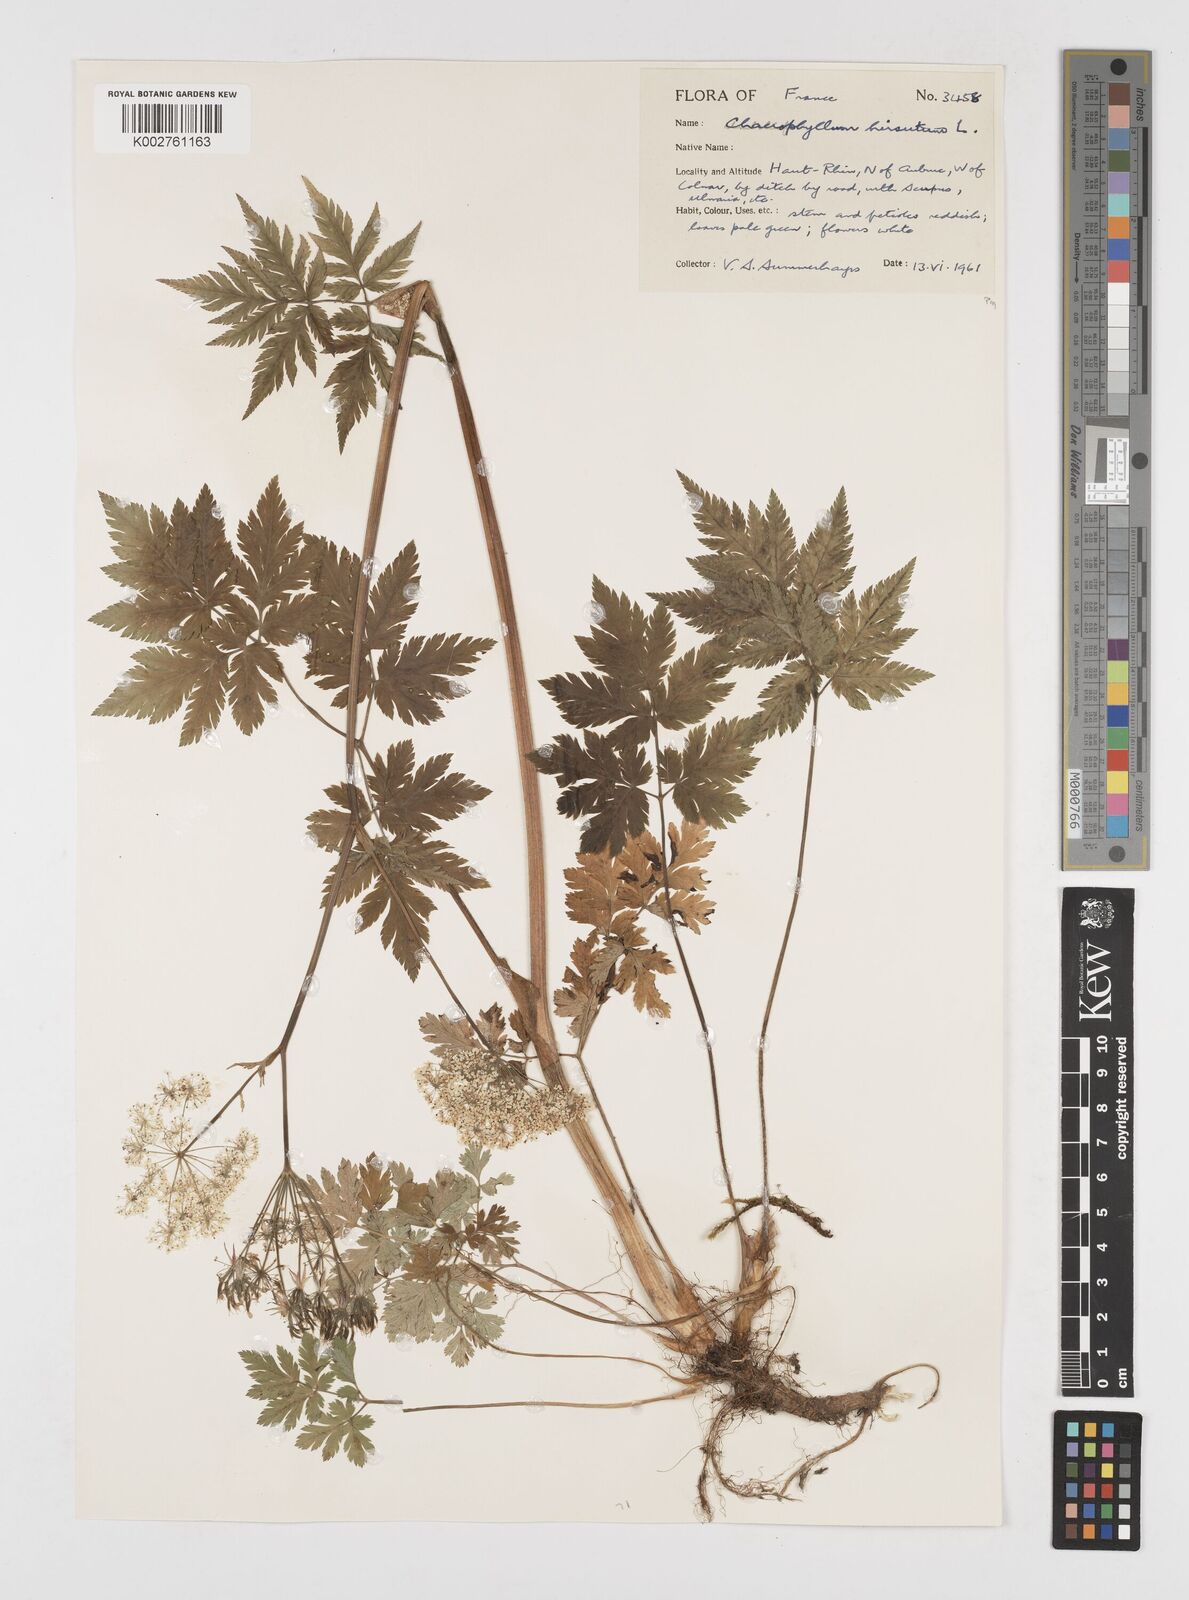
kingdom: Plantae
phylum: Tracheophyta
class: Magnoliopsida
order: Apiales
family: Apiaceae
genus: Chaerophyllum
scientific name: Chaerophyllum hirsutum
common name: Hairy chervil
